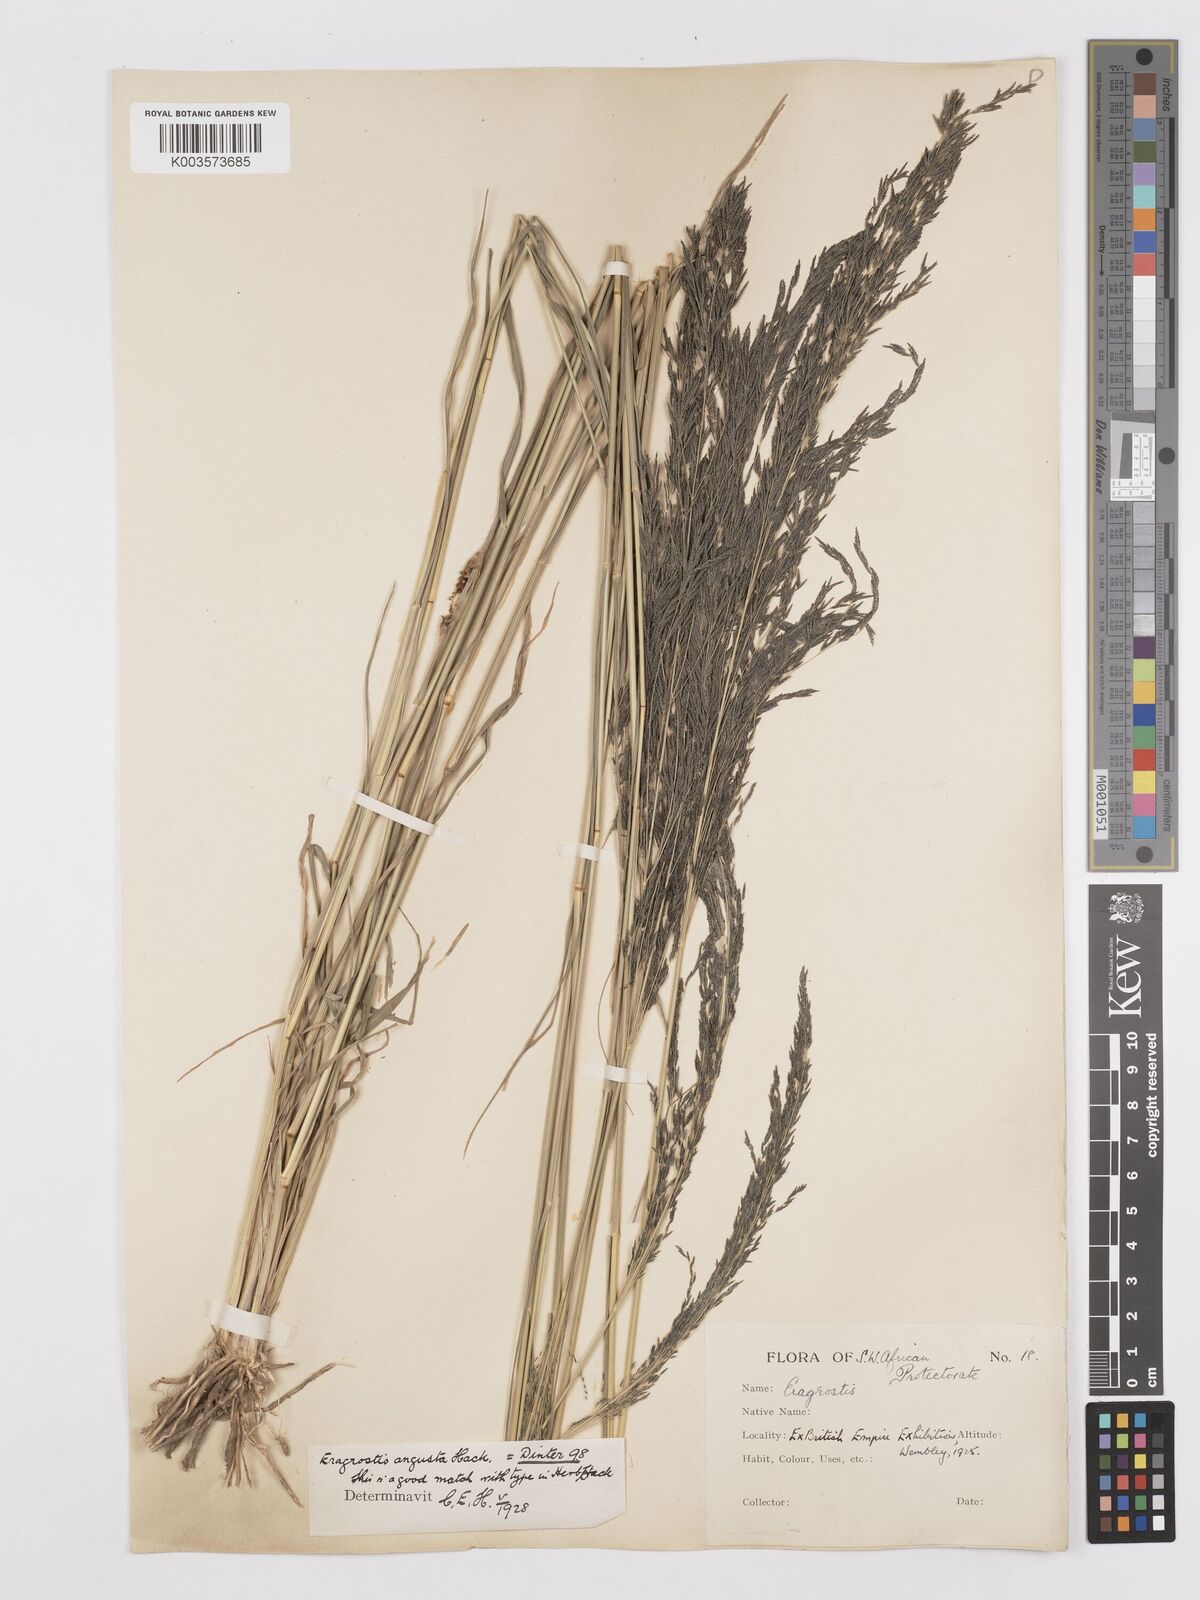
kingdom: Plantae
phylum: Tracheophyta
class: Liliopsida
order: Poales
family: Poaceae
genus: Eragrostis
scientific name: Eragrostis rotifer
